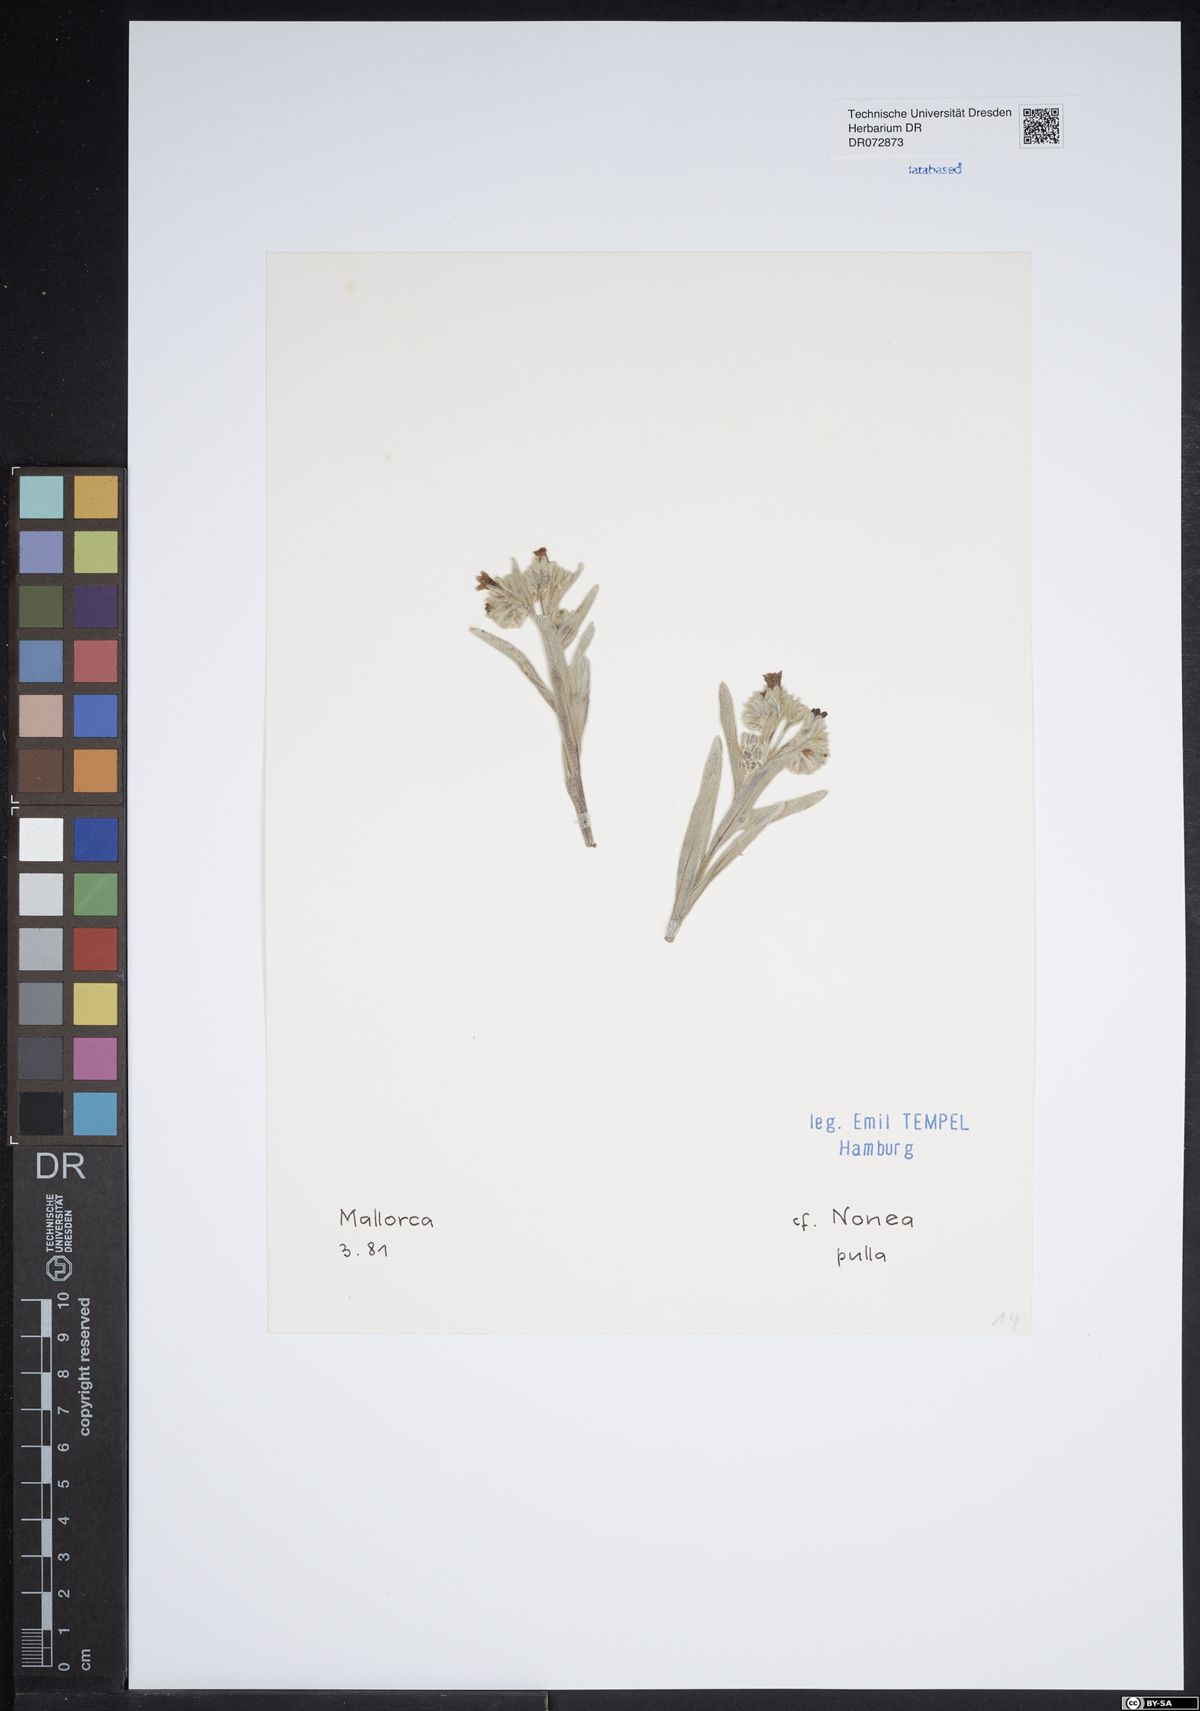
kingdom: Plantae
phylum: Tracheophyta
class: Magnoliopsida
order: Boraginales
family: Boraginaceae
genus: Nonea
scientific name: Nonea pulla
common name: Brown nonea
